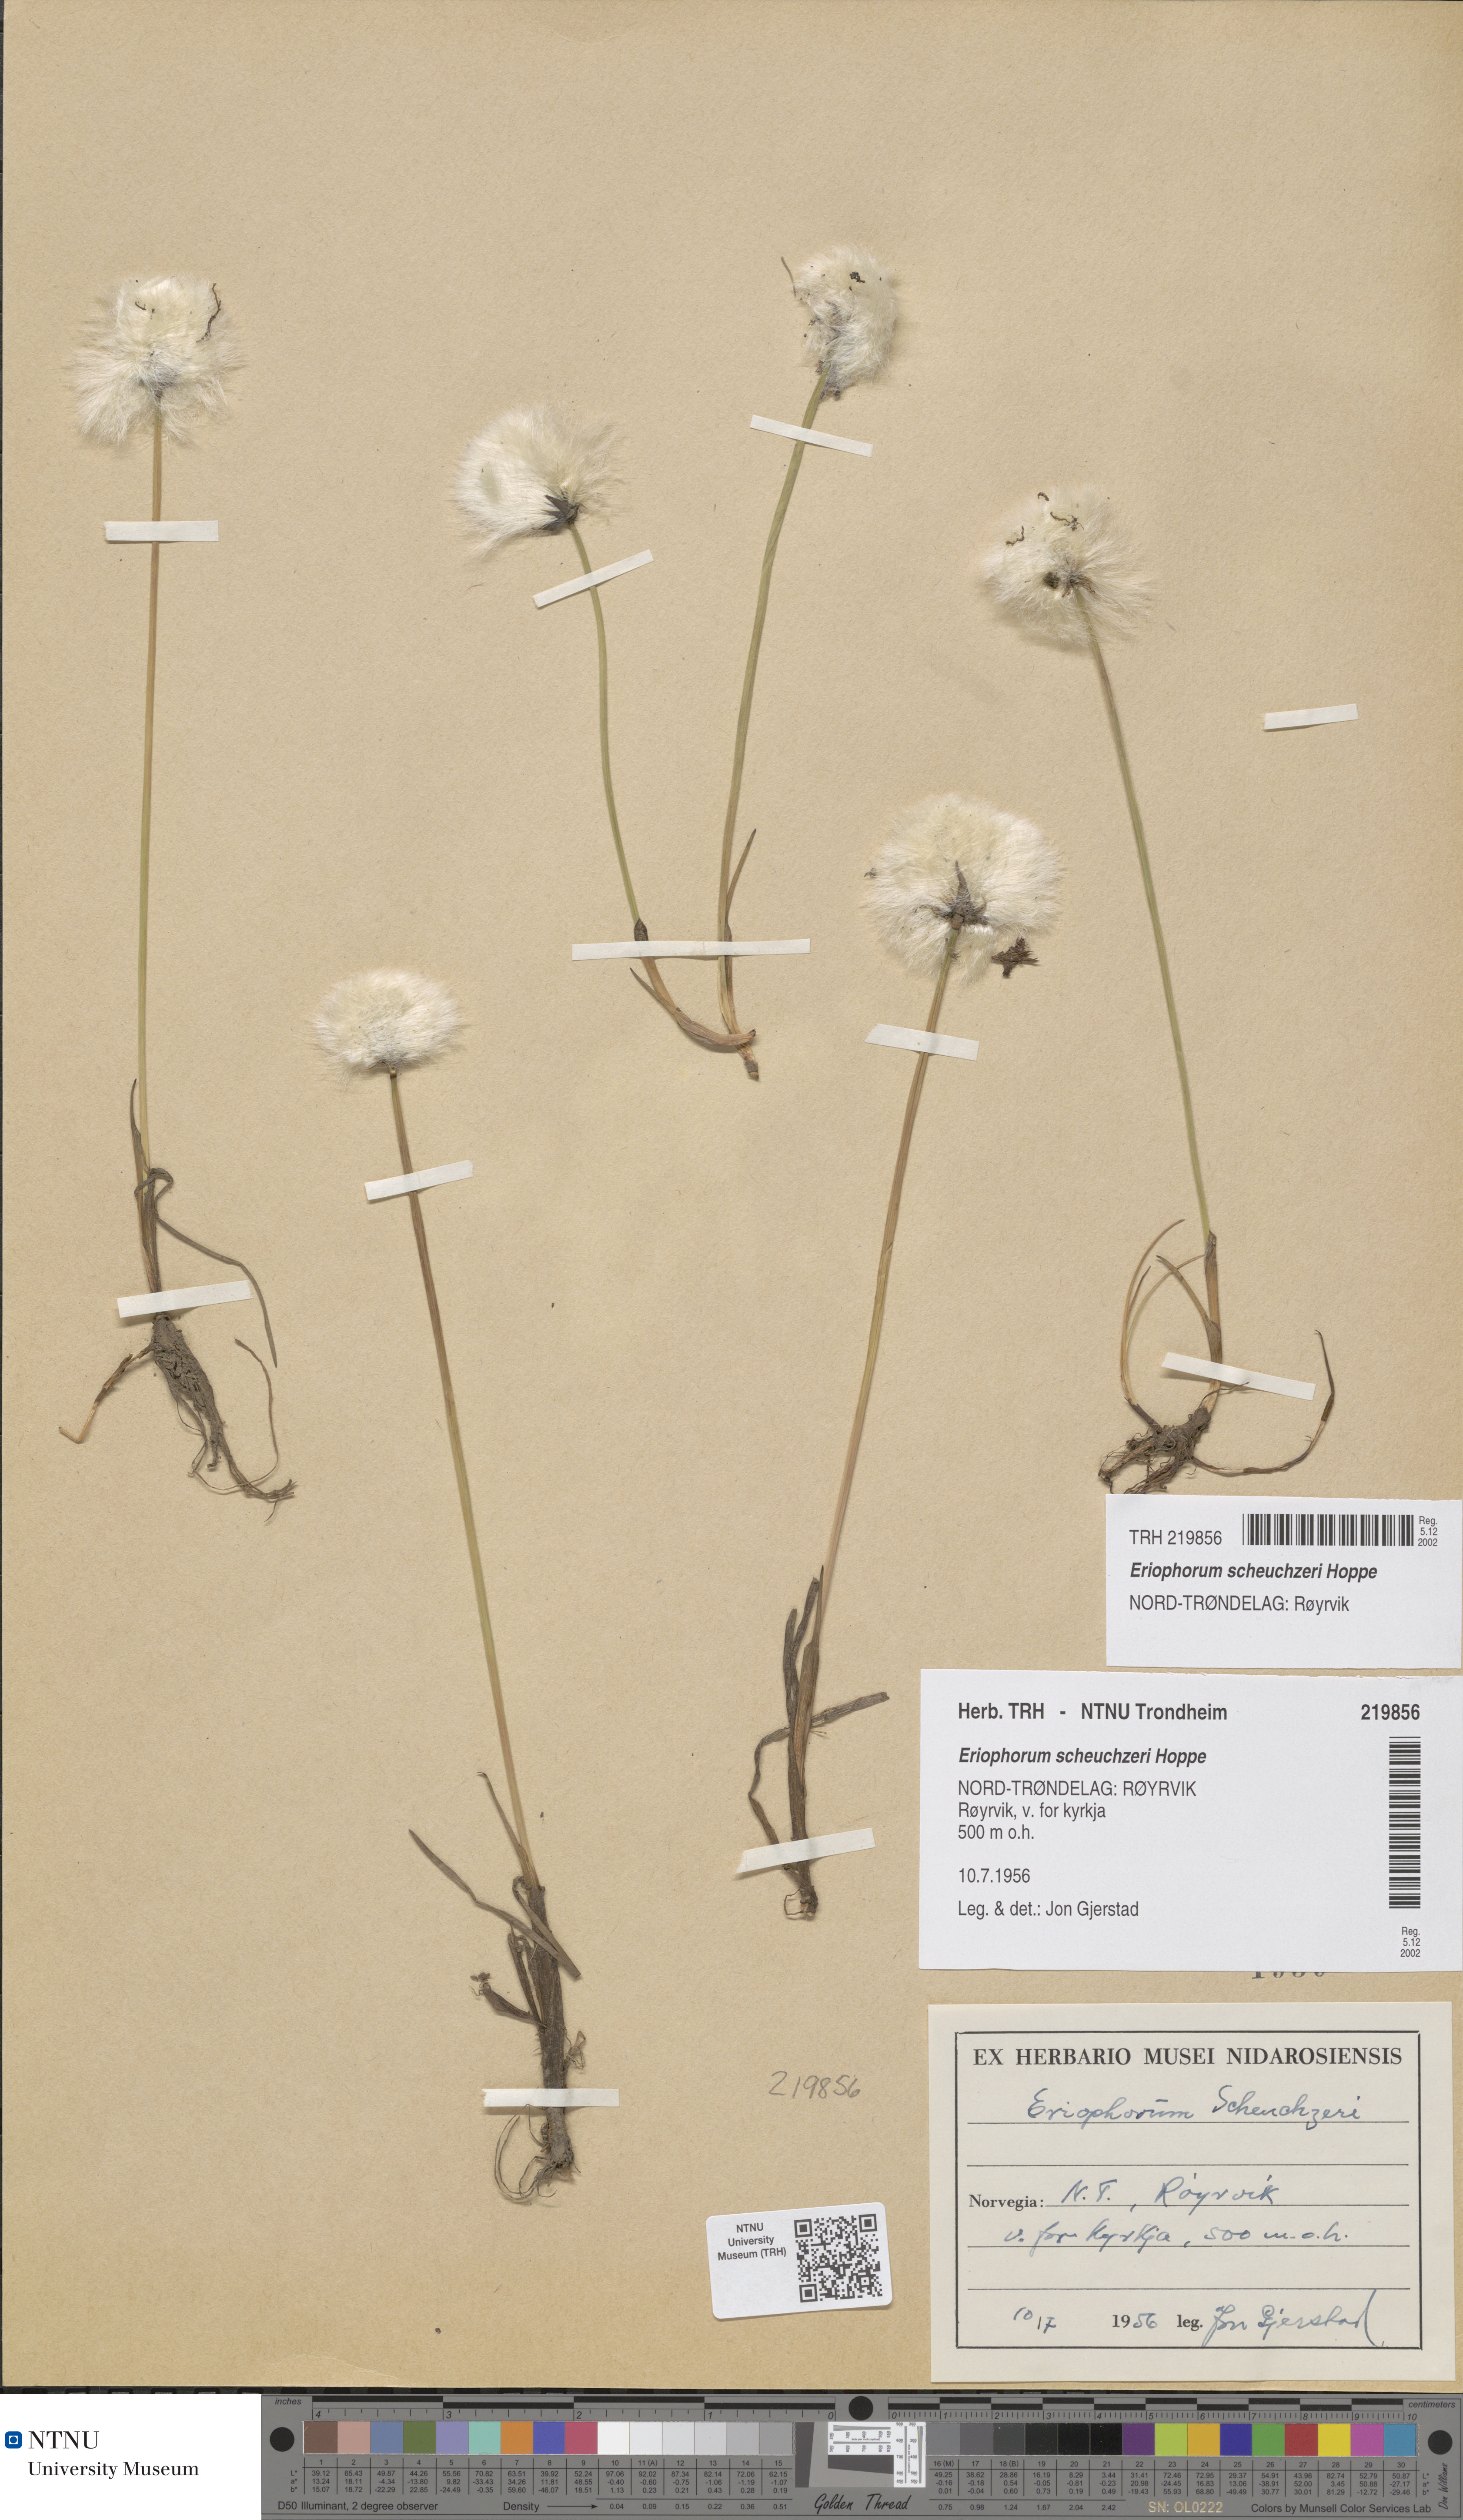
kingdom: Plantae
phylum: Tracheophyta
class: Liliopsida
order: Poales
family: Cyperaceae
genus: Eriophorum
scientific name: Eriophorum scheuchzeri
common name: Scheuchzer's cottongrass
